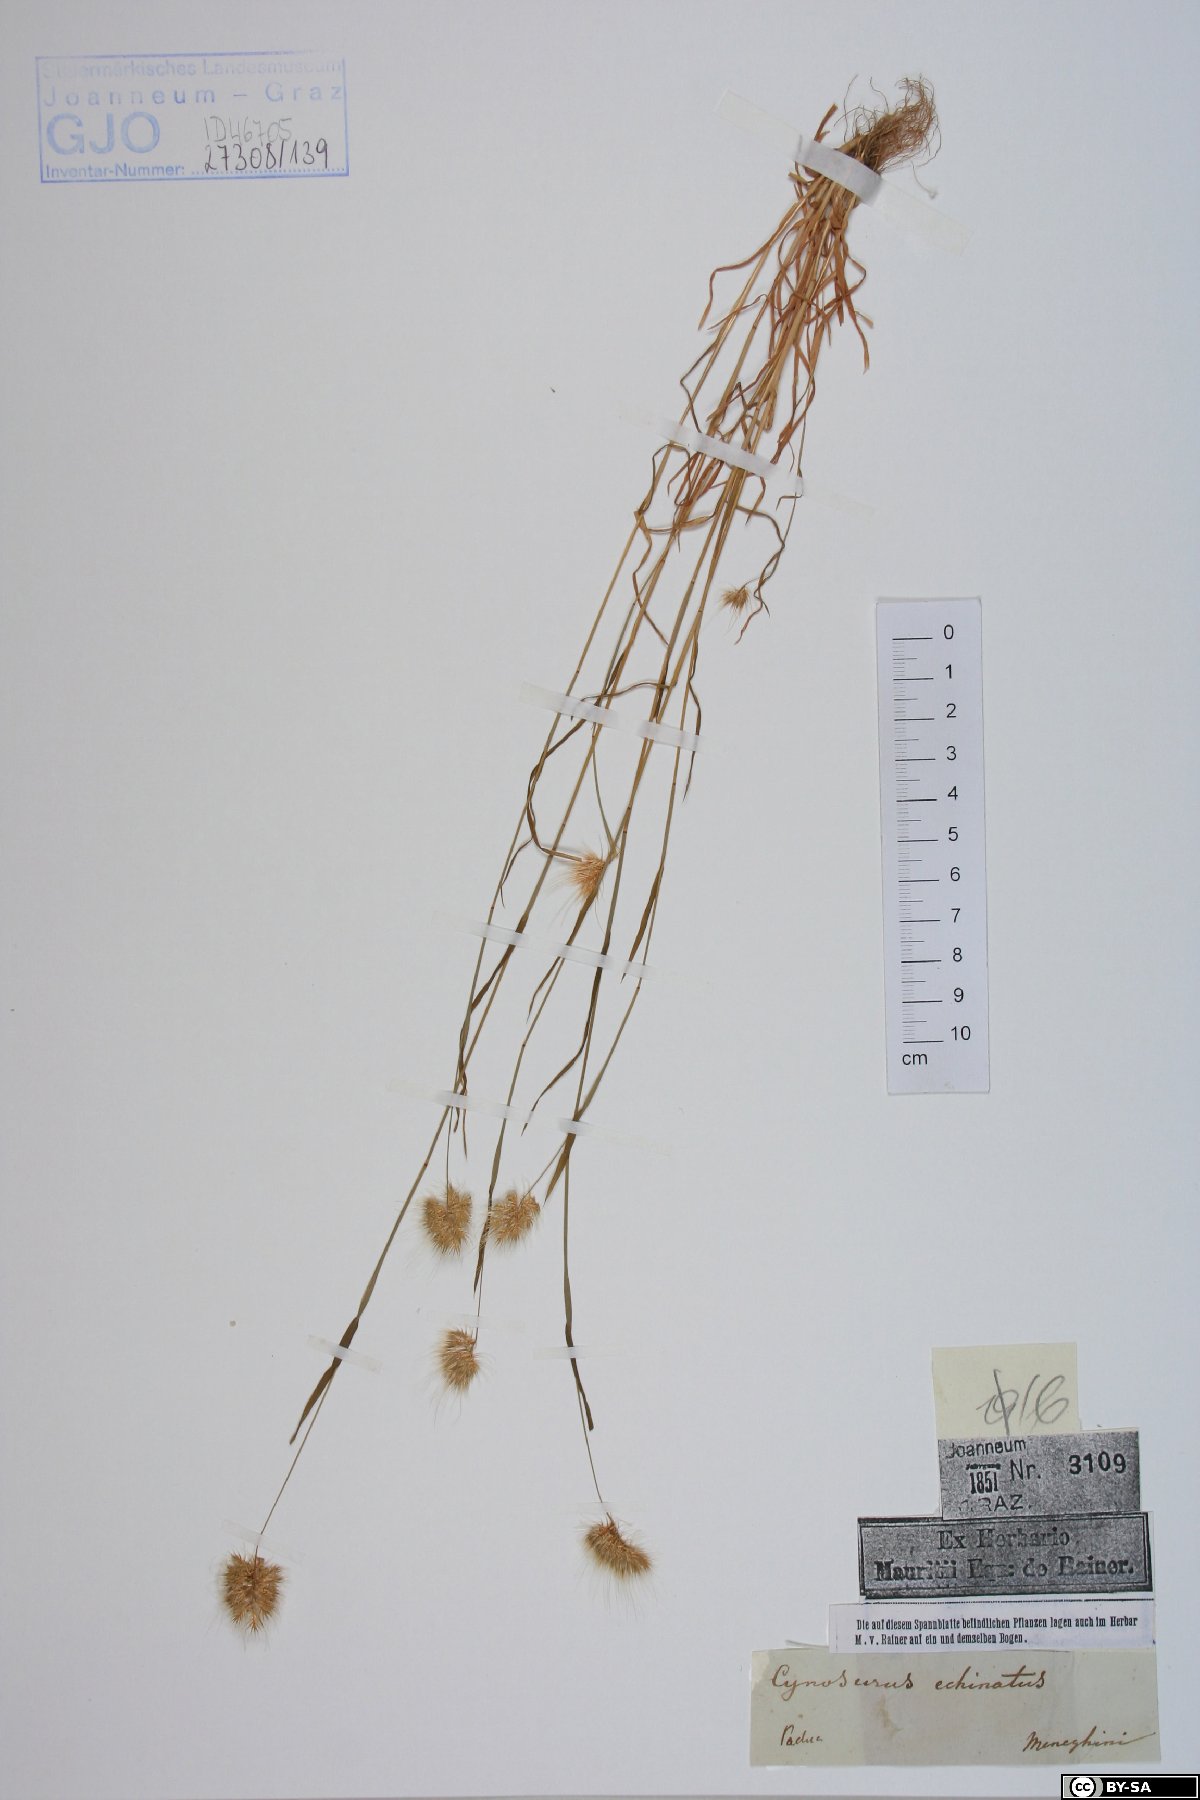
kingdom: Plantae
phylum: Tracheophyta
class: Liliopsida
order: Poales
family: Poaceae
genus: Cynosurus
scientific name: Cynosurus echinatus
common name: Rough dog's-tail
